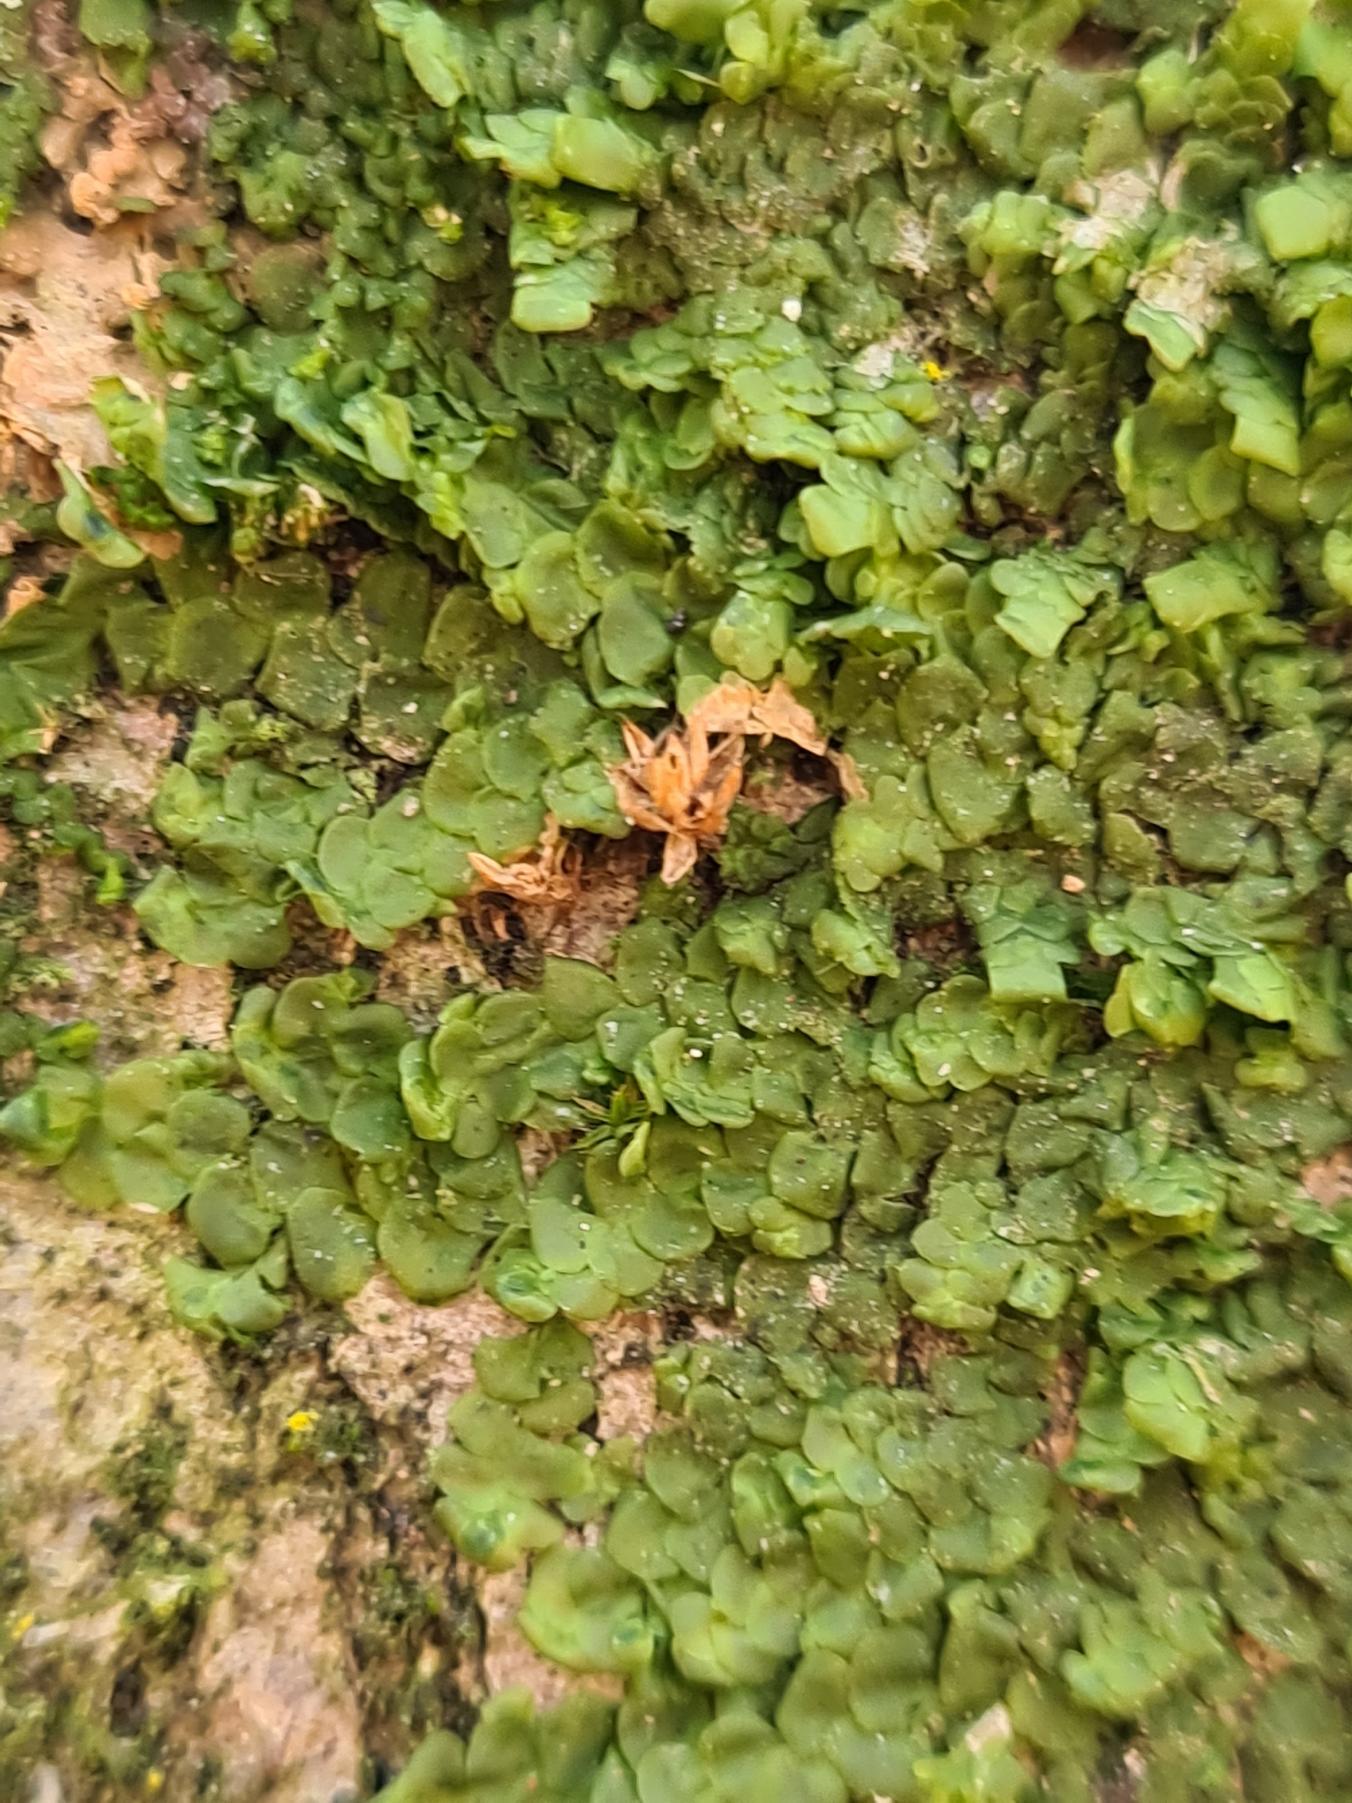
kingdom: Plantae
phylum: Marchantiophyta
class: Jungermanniopsida
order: Porellales
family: Radulaceae
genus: Radula
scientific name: Radula complanata
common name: Almindelig spartelmos
